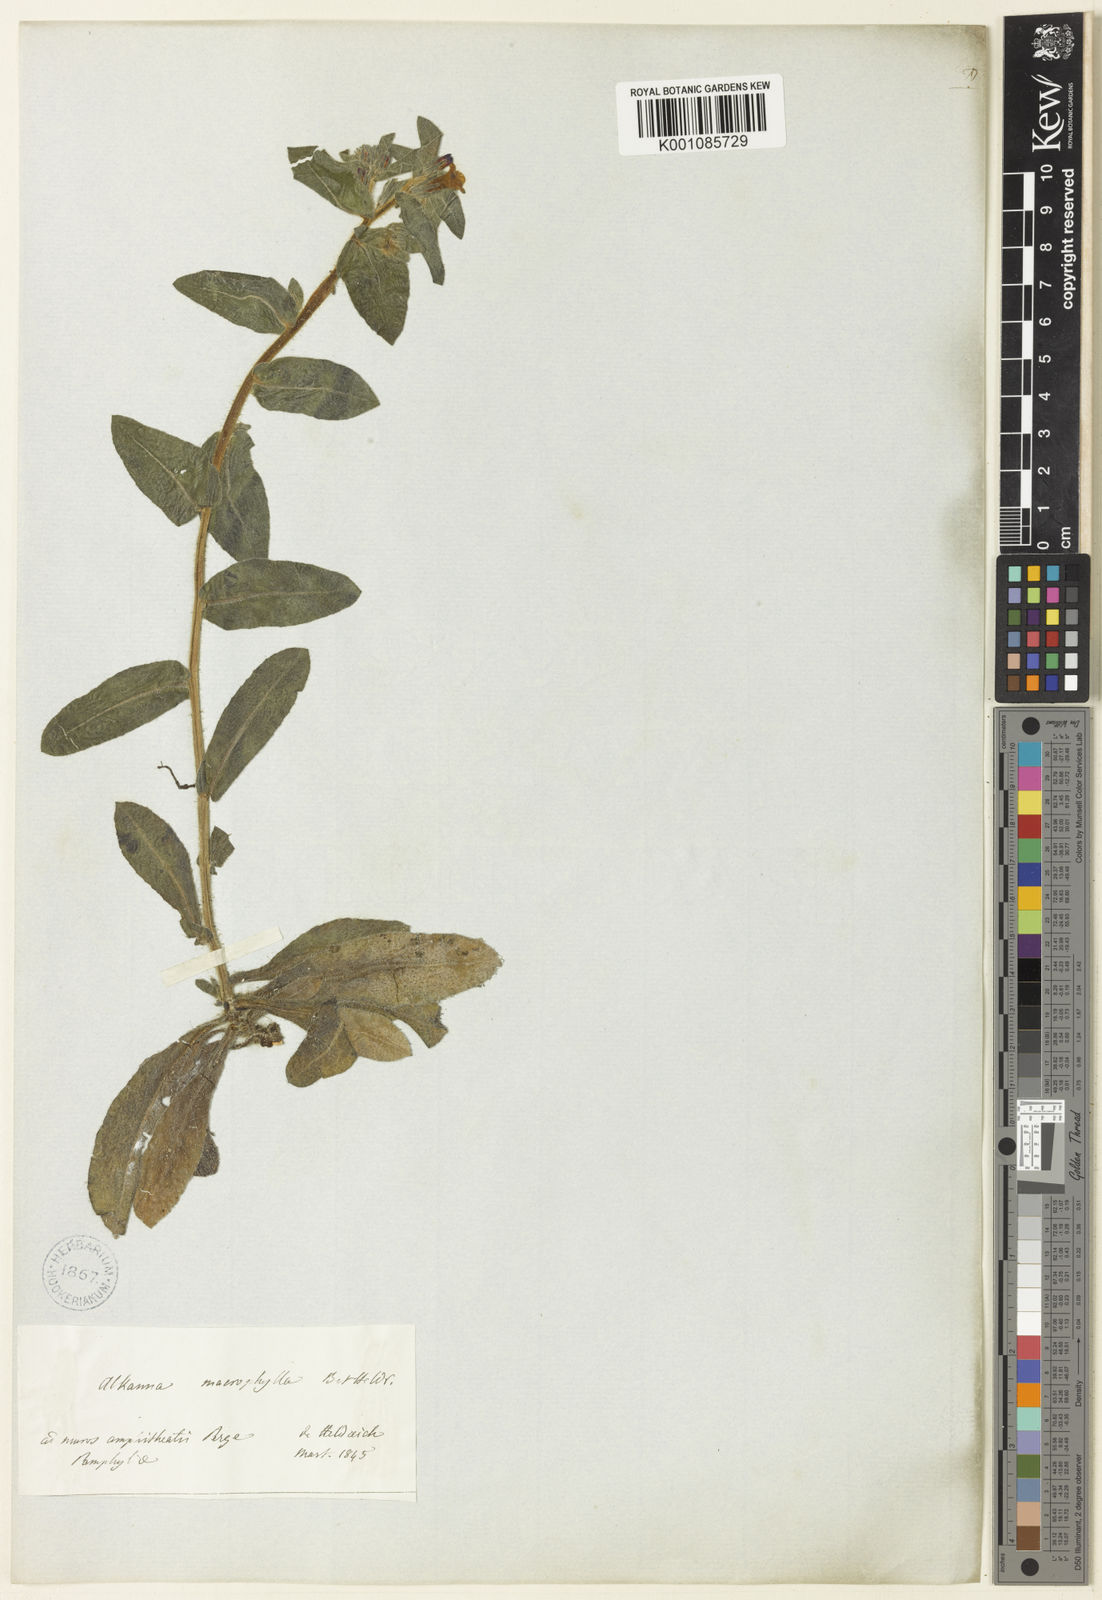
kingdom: Plantae
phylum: Tracheophyta
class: Magnoliopsida
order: Boraginales
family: Boraginaceae
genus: Alkanna
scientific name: Alkanna macrophylla
